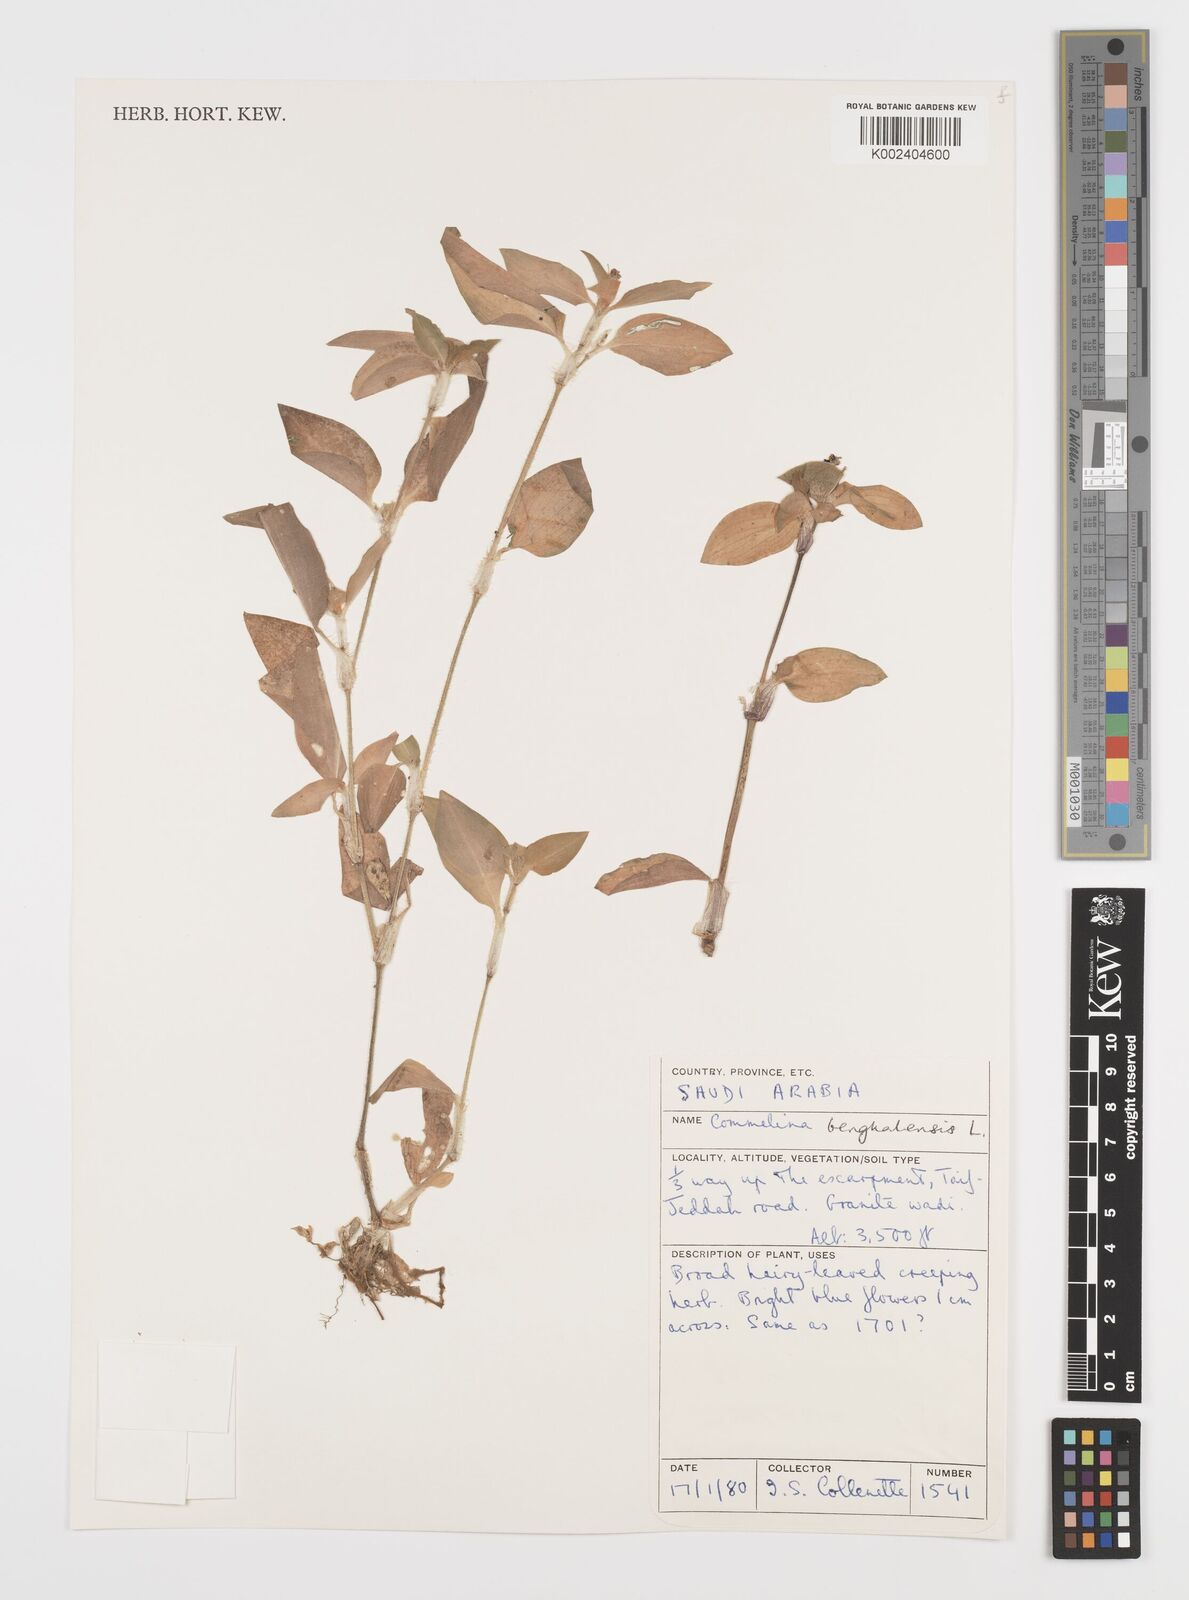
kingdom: Plantae
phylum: Tracheophyta
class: Liliopsida
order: Commelinales
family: Commelinaceae
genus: Commelina
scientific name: Commelina benghalensis
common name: Jio
